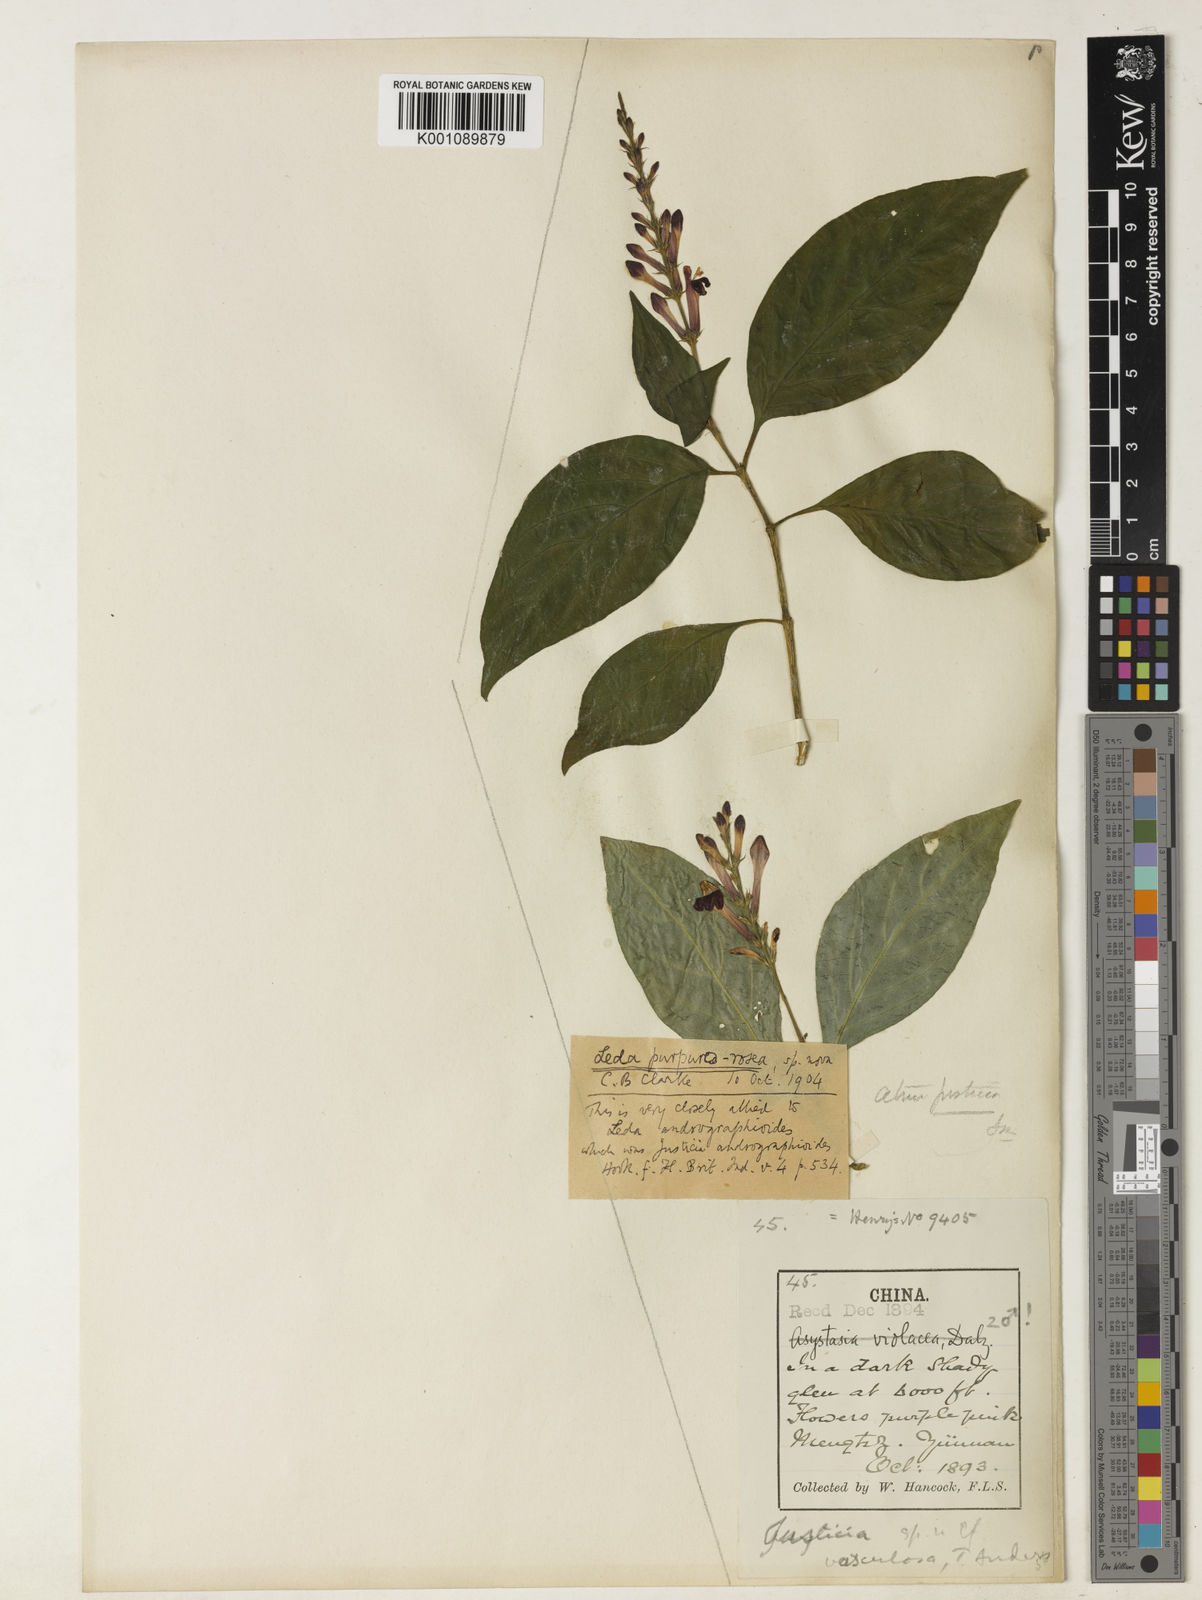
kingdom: Plantae
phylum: Tracheophyta
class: Magnoliopsida
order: Lamiales
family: Acanthaceae
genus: Isoglossa
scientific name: Isoglossa
